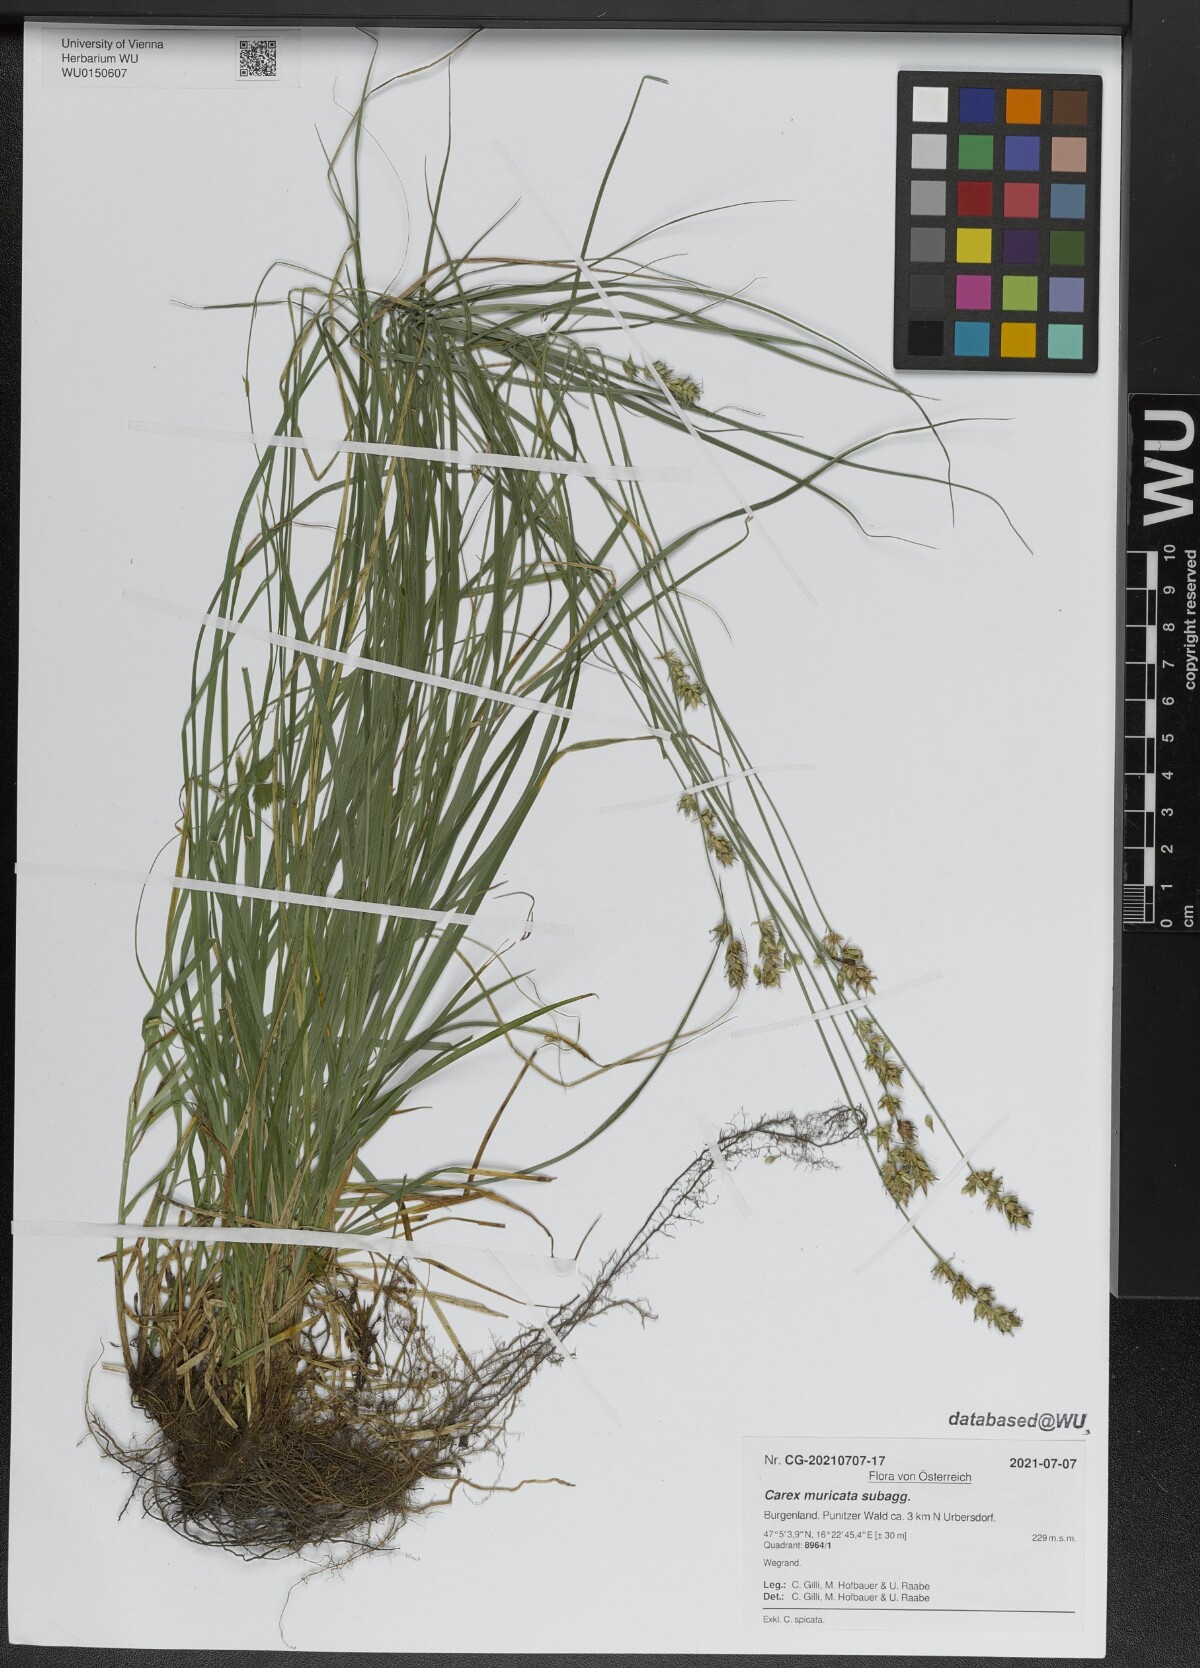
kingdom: Plantae
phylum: Tracheophyta
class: Liliopsida
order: Poales
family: Cyperaceae
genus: Carex
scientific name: Carex muricata
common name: Rough sedge
